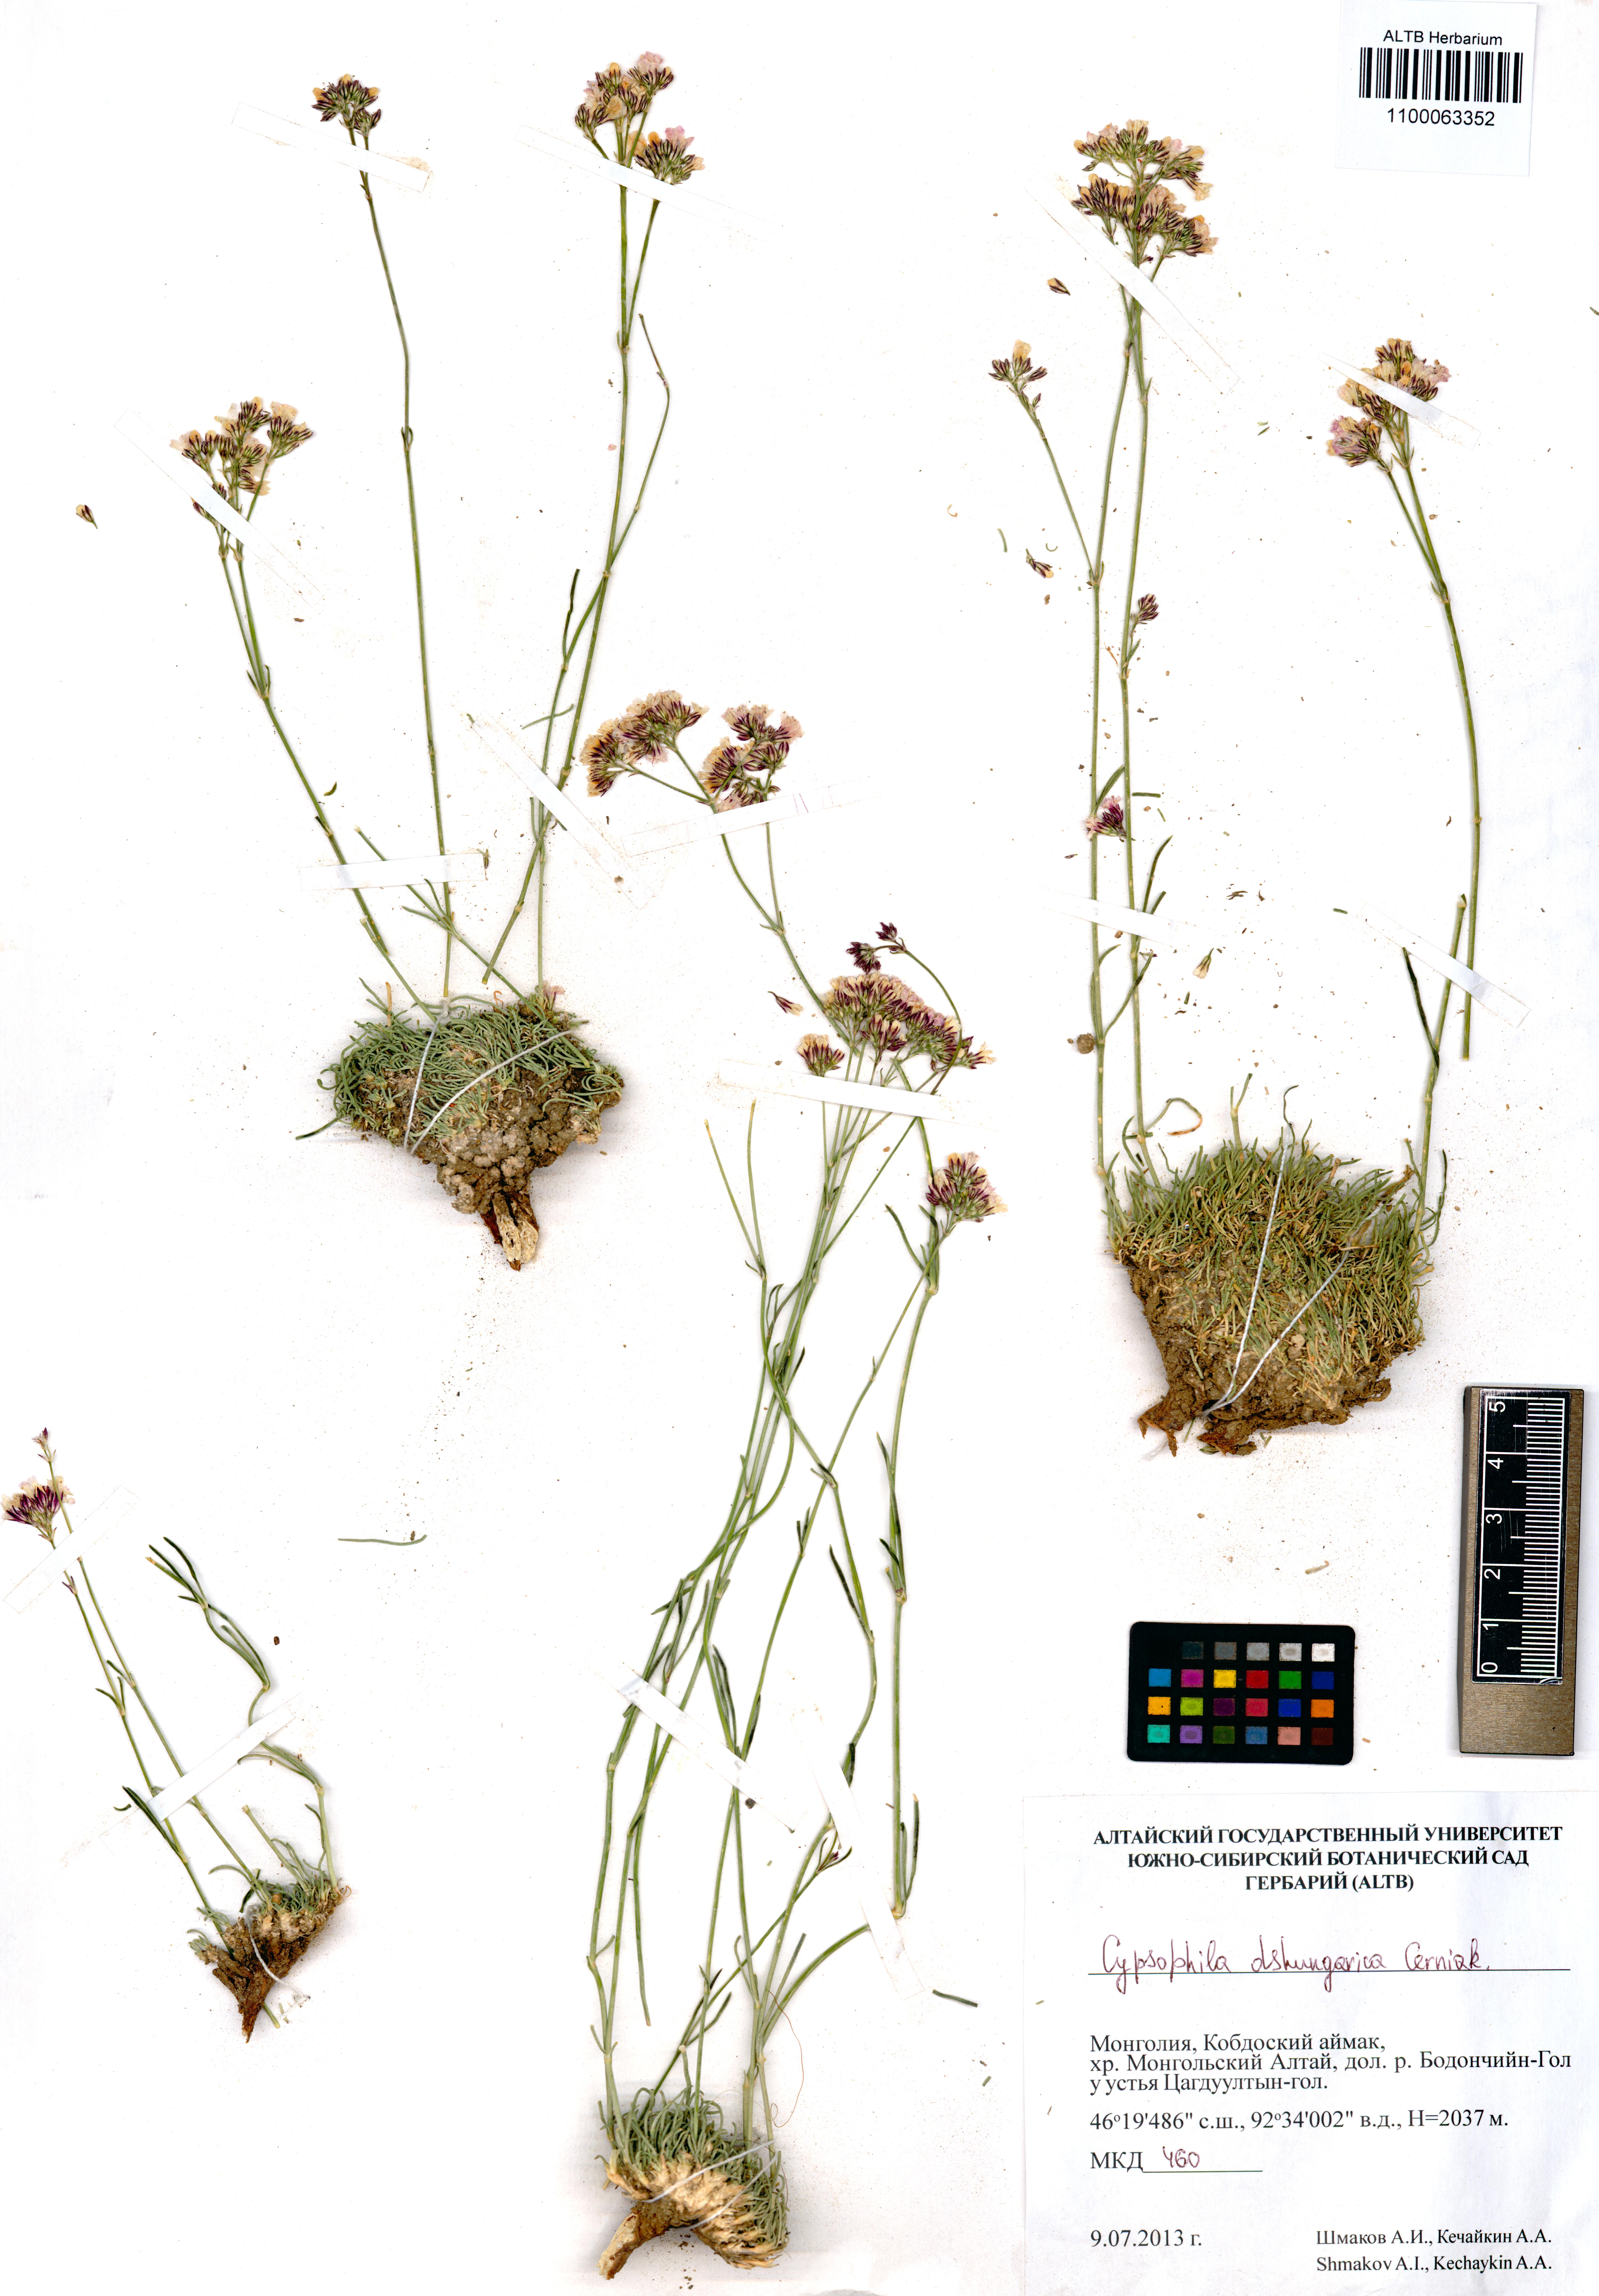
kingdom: Plantae
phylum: Tracheophyta
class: Magnoliopsida
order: Caryophyllales
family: Caryophyllaceae
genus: Gypsophila
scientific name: Gypsophila capituliflora
